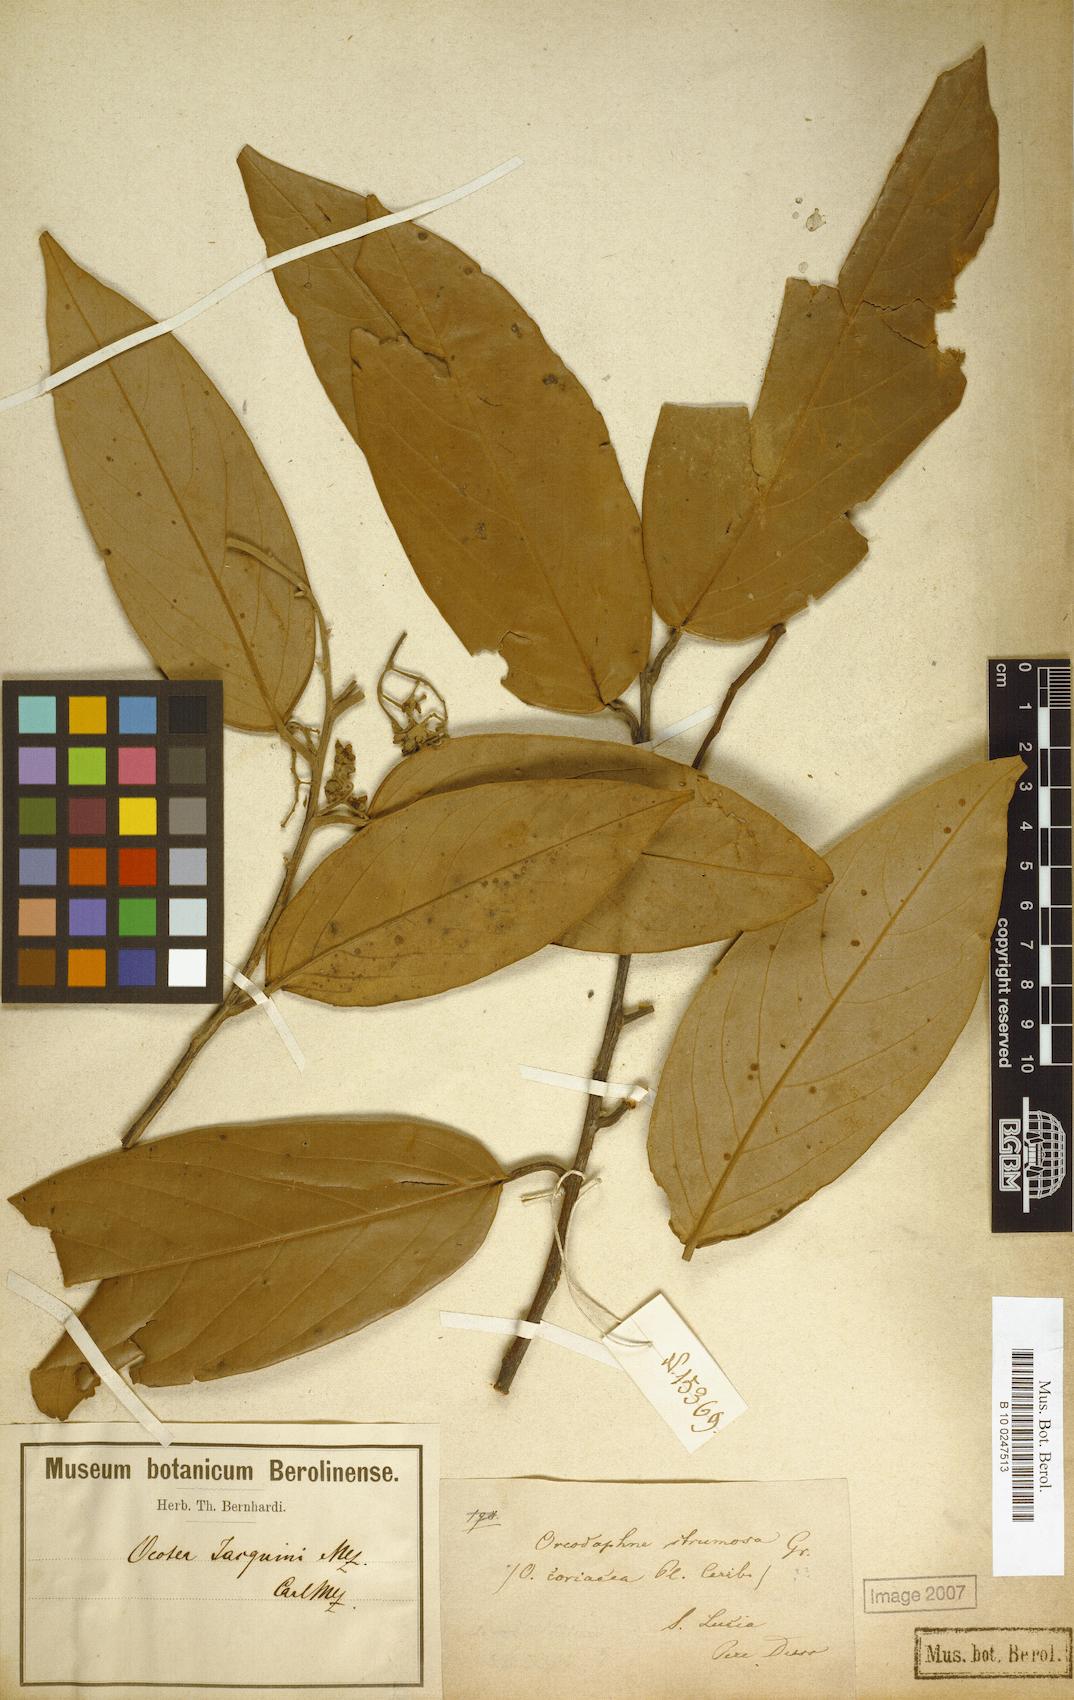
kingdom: Plantae
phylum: Tracheophyta
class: Magnoliopsida
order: Laurales
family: Lauraceae
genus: Ocotea
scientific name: Ocotea jacquinii
